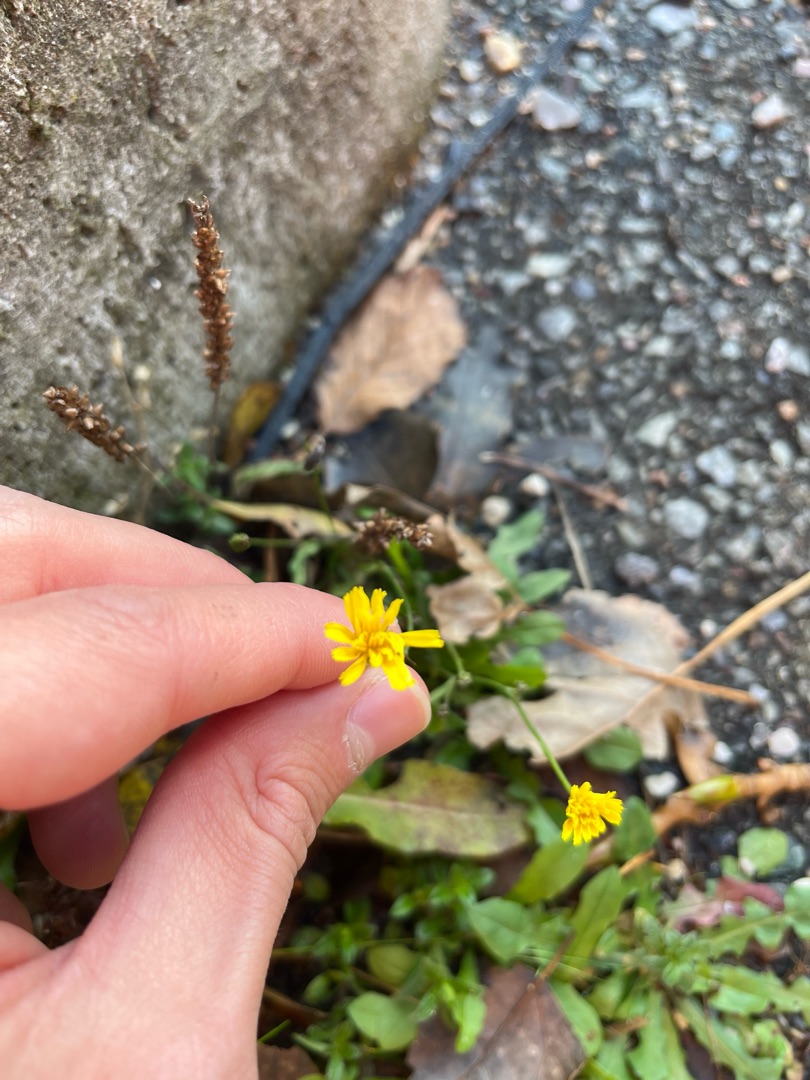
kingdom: Plantae
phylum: Tracheophyta
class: Magnoliopsida
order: Asterales
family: Asteraceae
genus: Crepis
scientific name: Crepis capillaris
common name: Grøn høgeskæg
